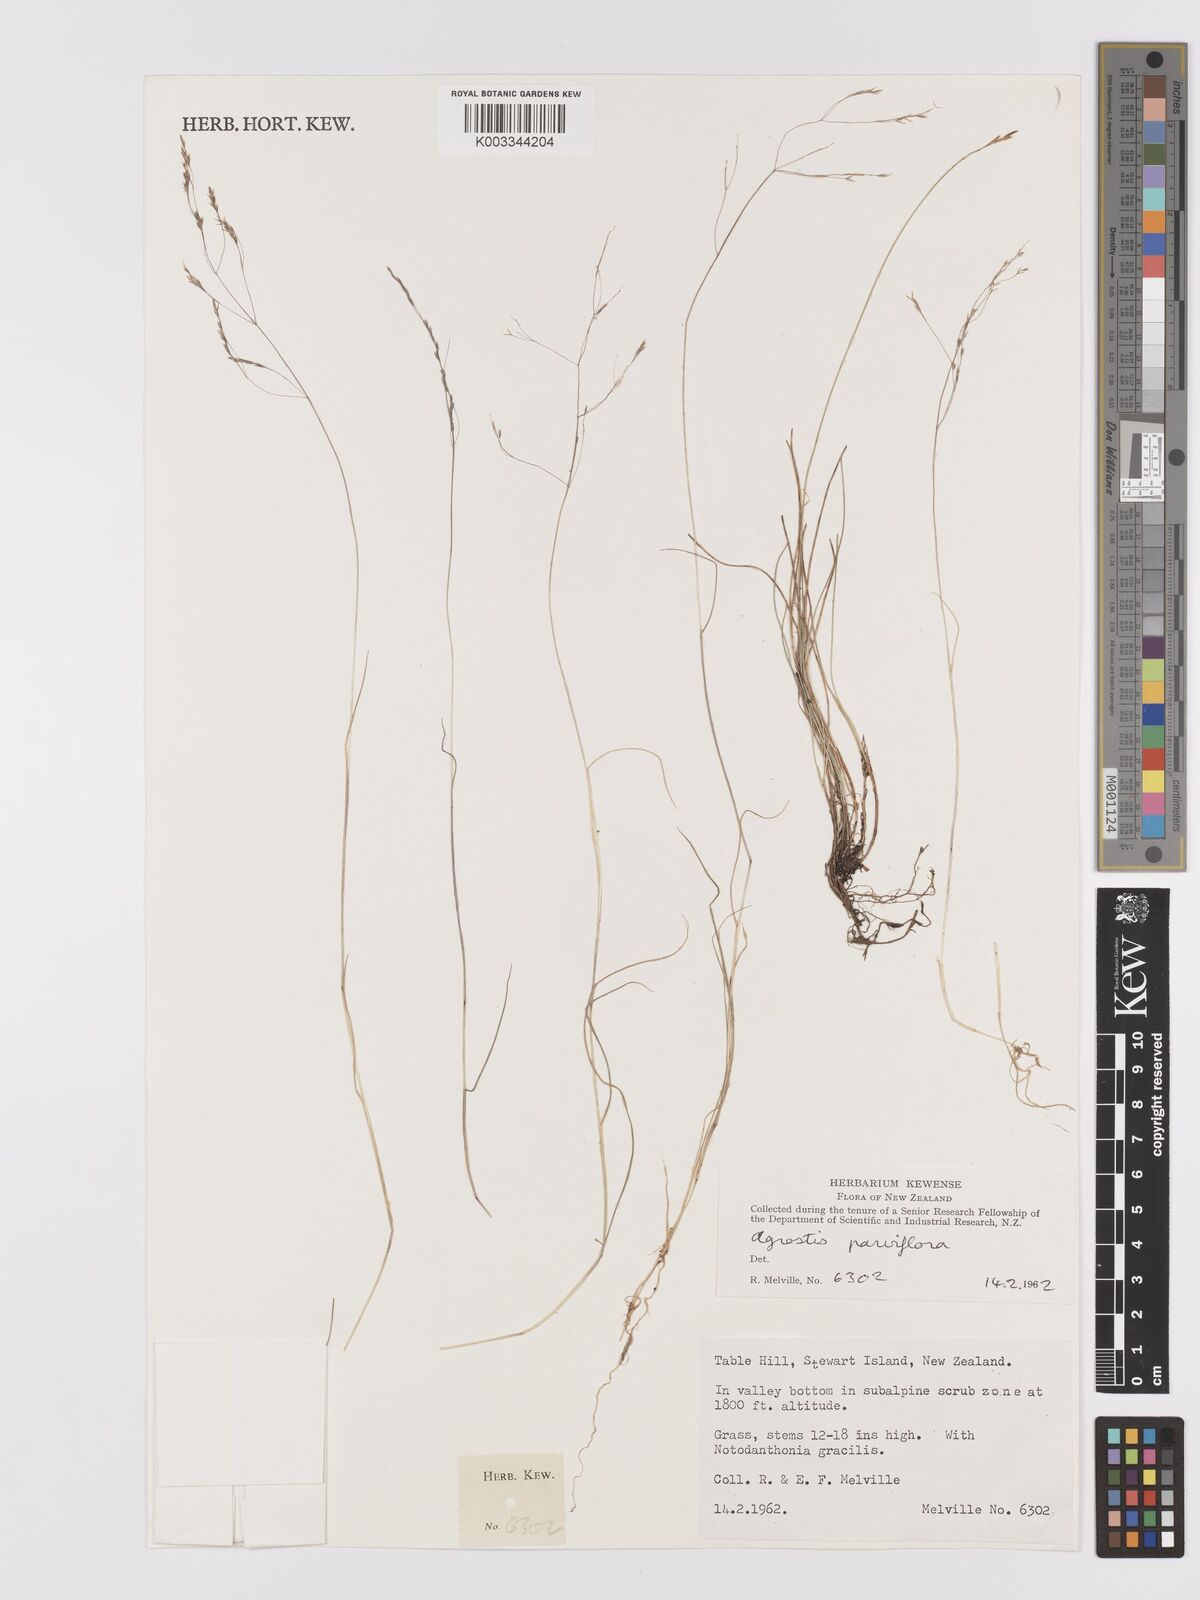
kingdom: Plantae
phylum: Tracheophyta
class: Liliopsida
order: Poales
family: Poaceae
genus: Agrostis
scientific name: Agrostis parviflora
